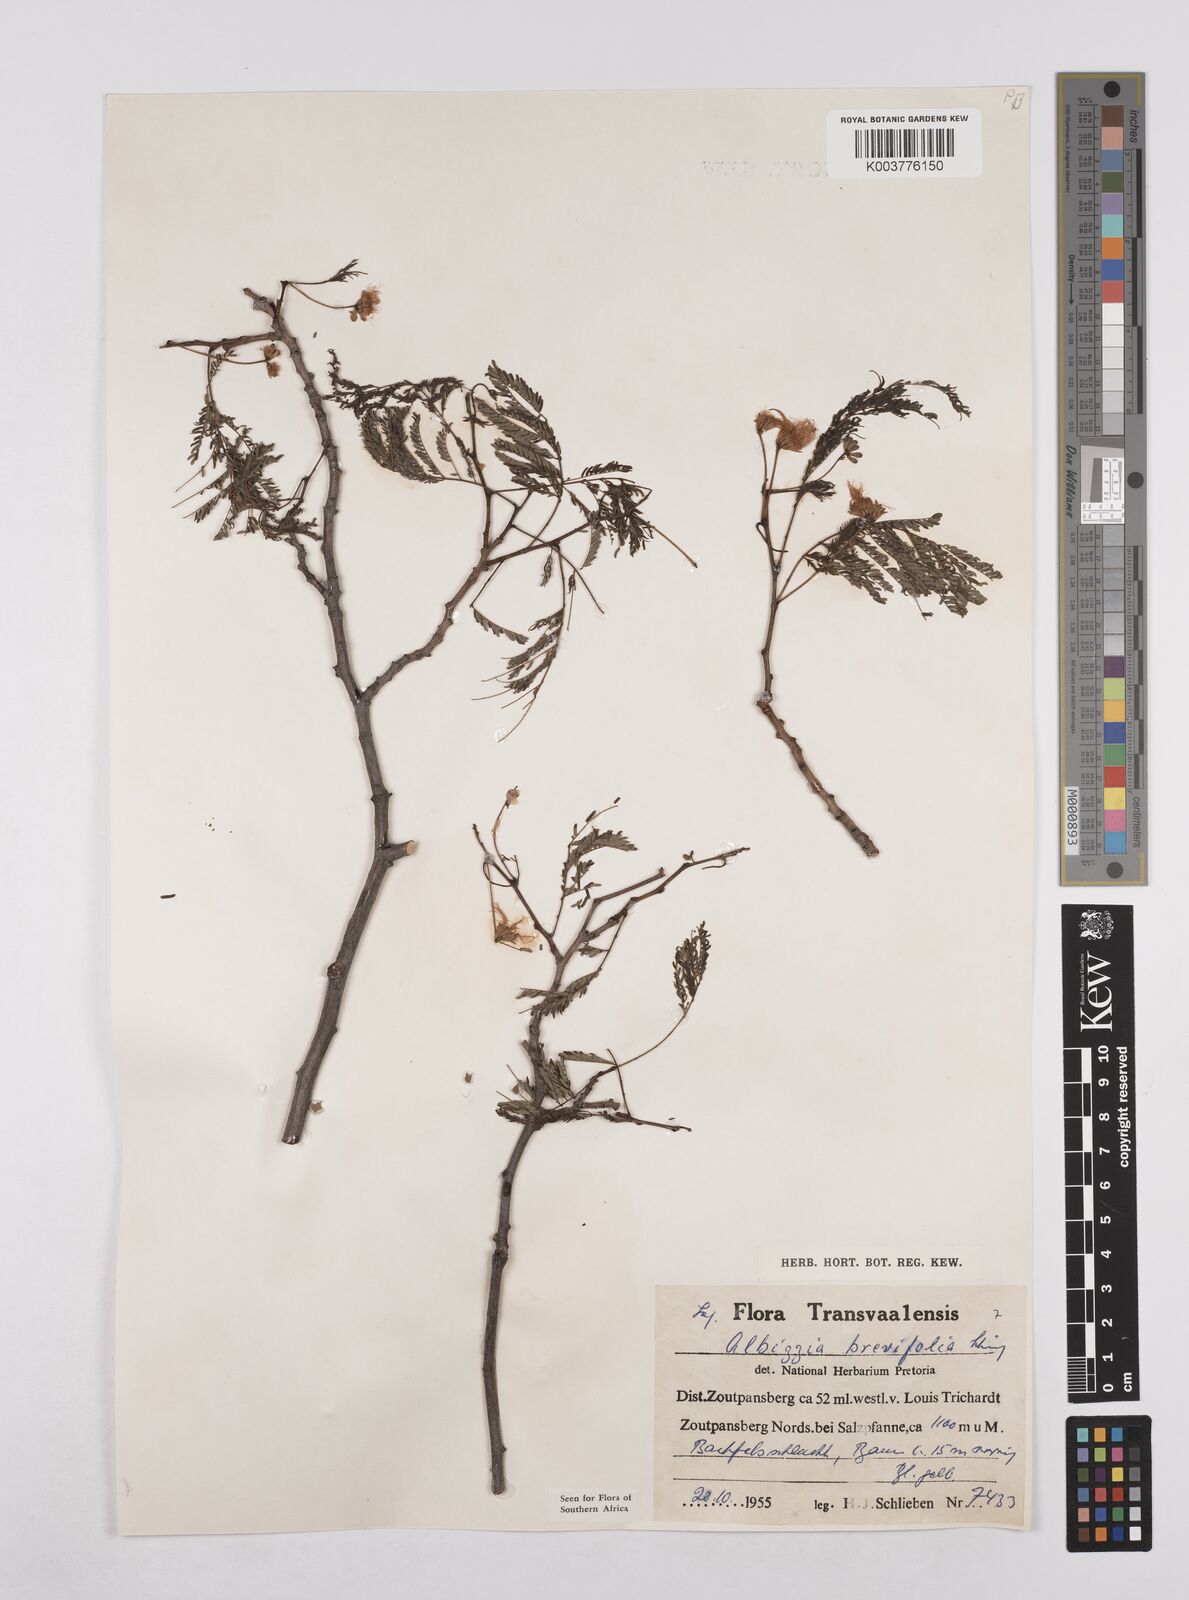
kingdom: Plantae
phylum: Tracheophyta
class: Magnoliopsida
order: Fabales
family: Fabaceae
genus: Albizia
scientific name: Albizia brevifolia
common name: Rock false-thorn
